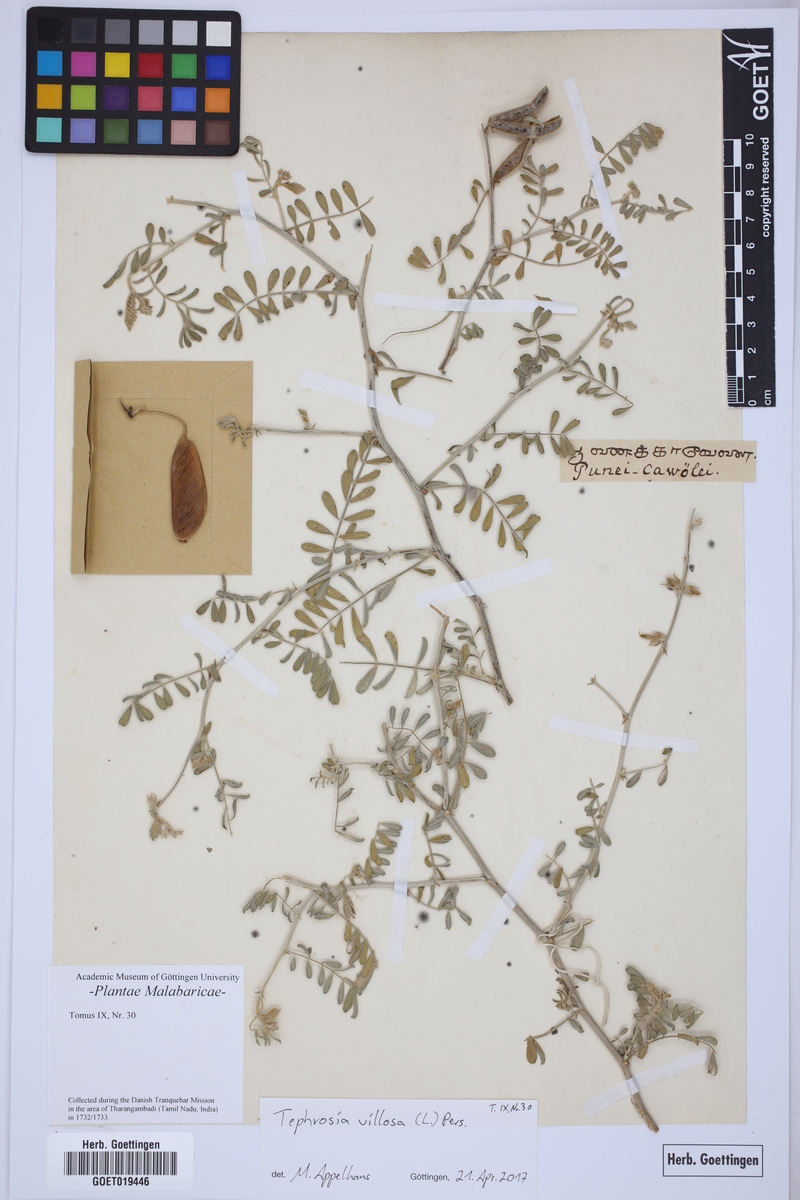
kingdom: Plantae
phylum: Tracheophyta
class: Magnoliopsida
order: Fabales
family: Fabaceae
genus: Tephrosia
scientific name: Tephrosia villosa
